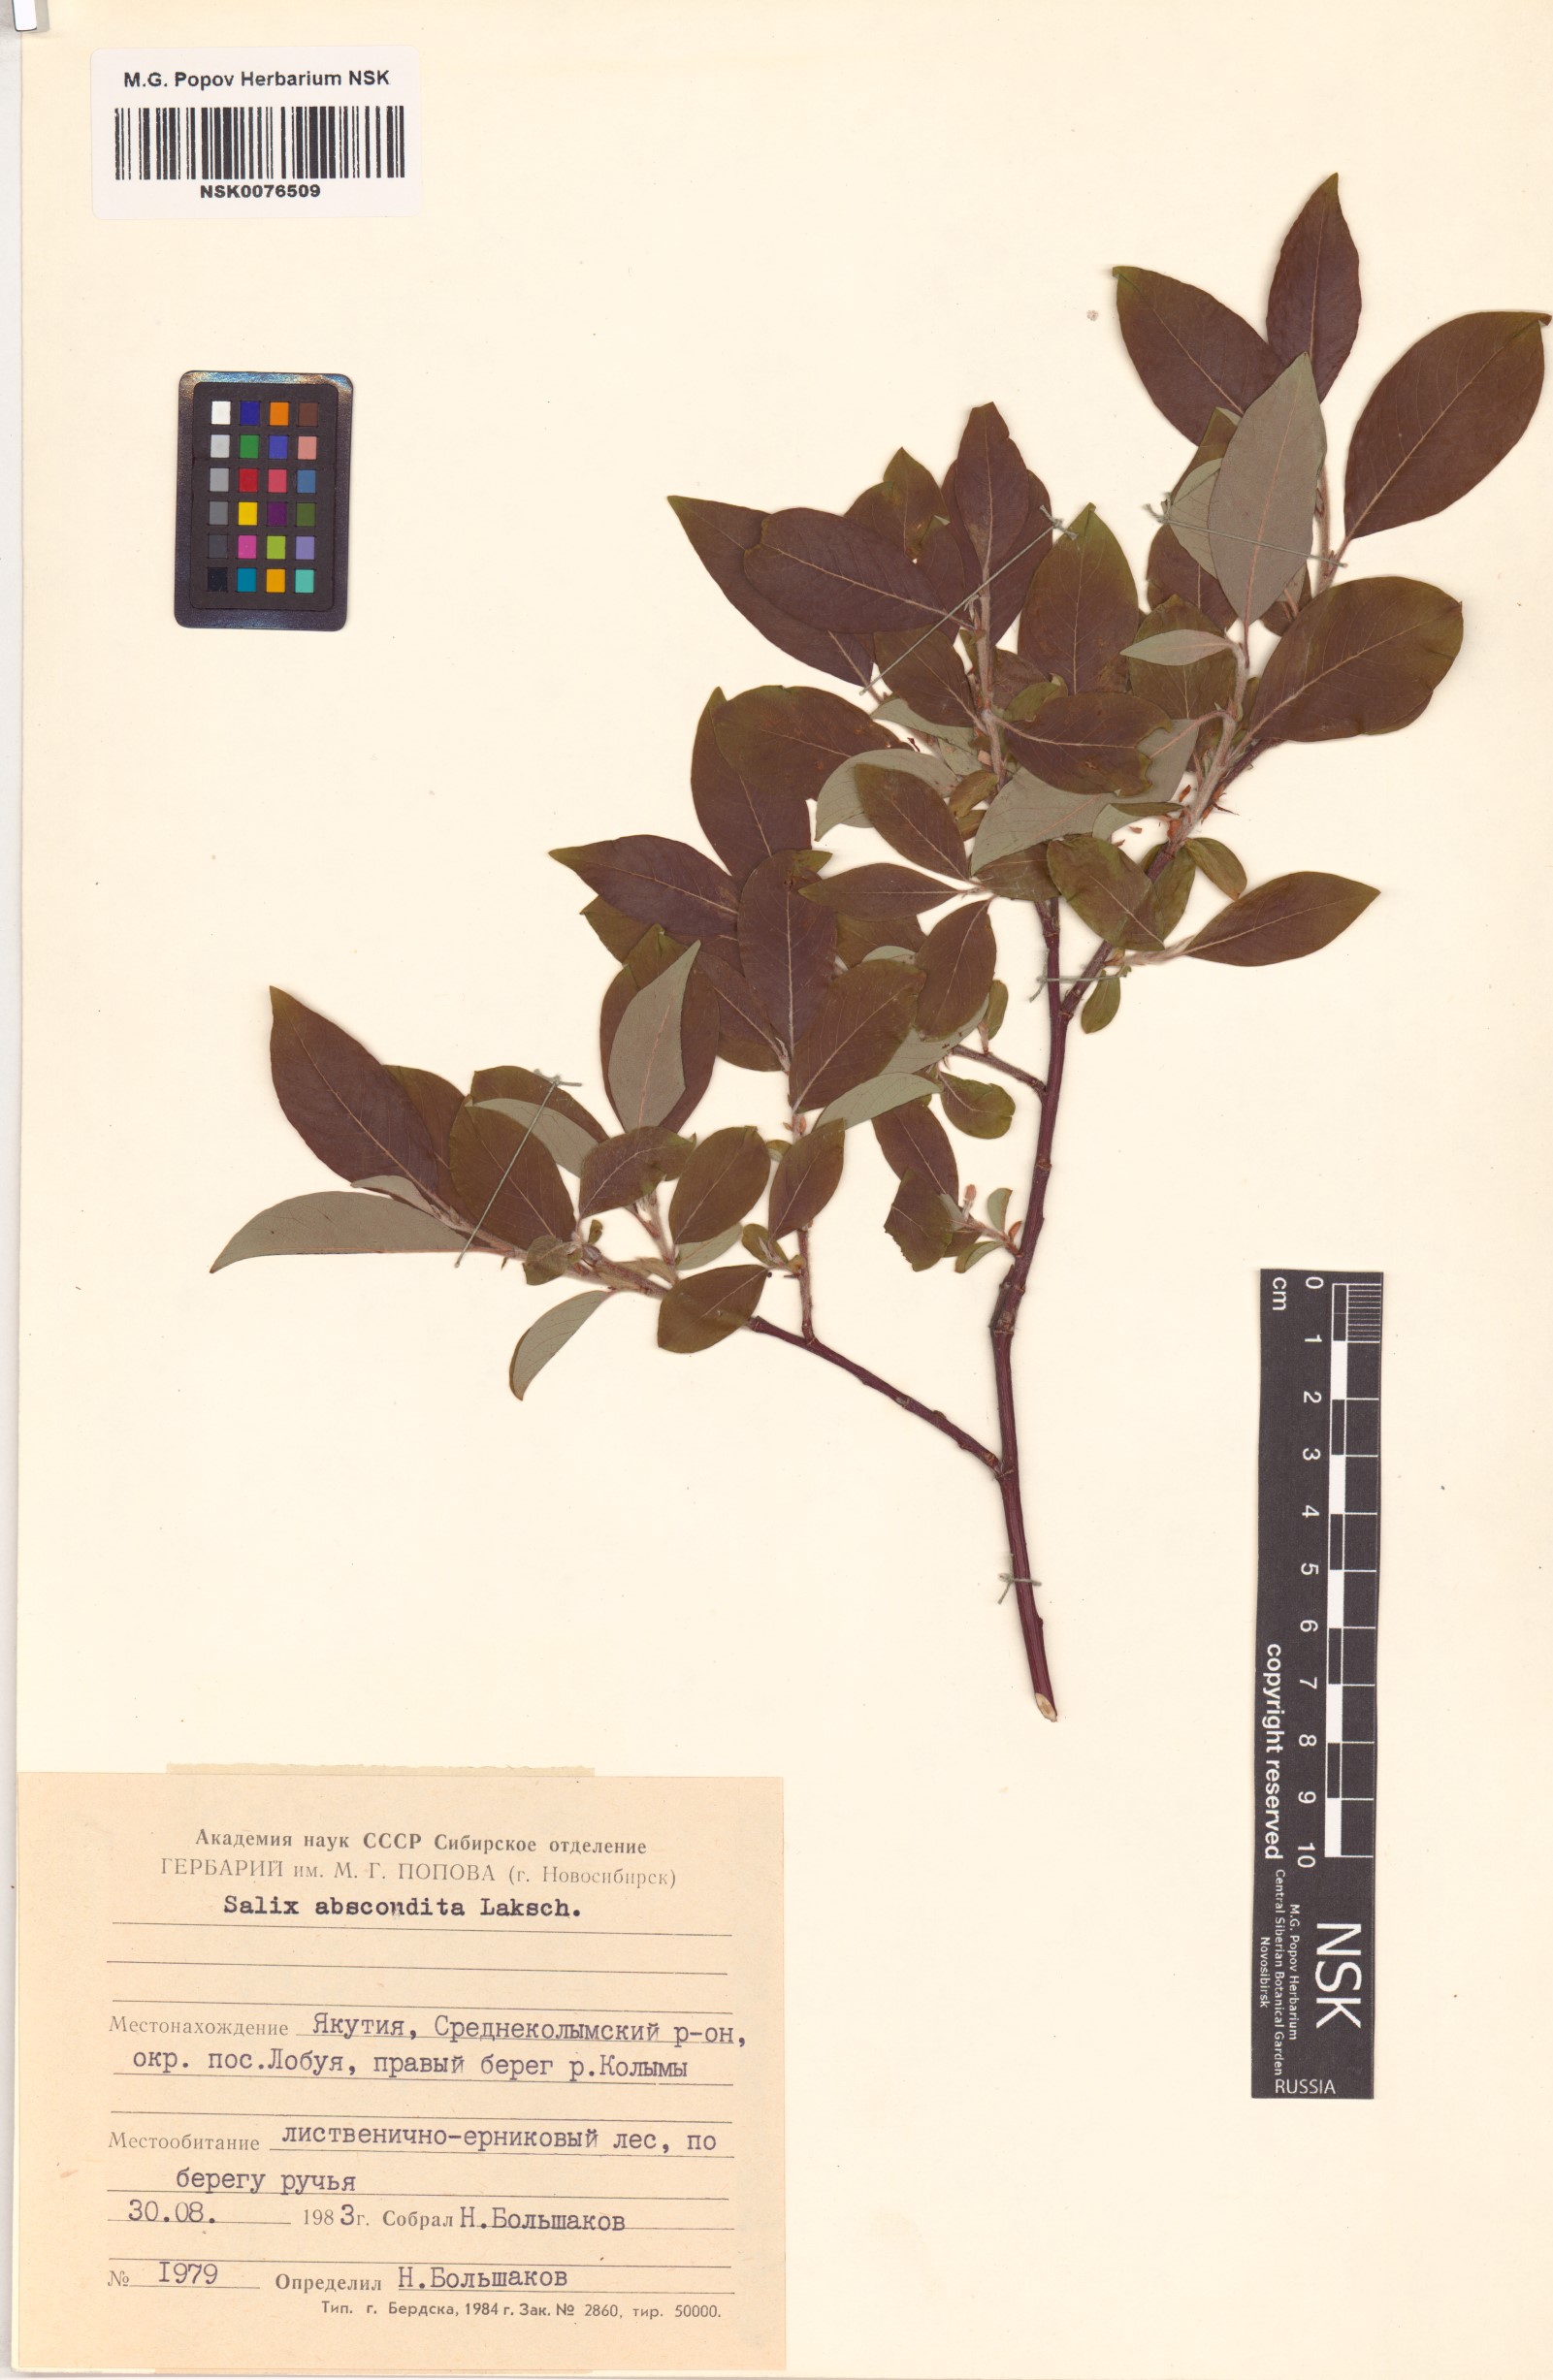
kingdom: Plantae
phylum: Tracheophyta
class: Magnoliopsida
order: Malpighiales
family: Salicaceae
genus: Salix
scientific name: Salix abscondita
